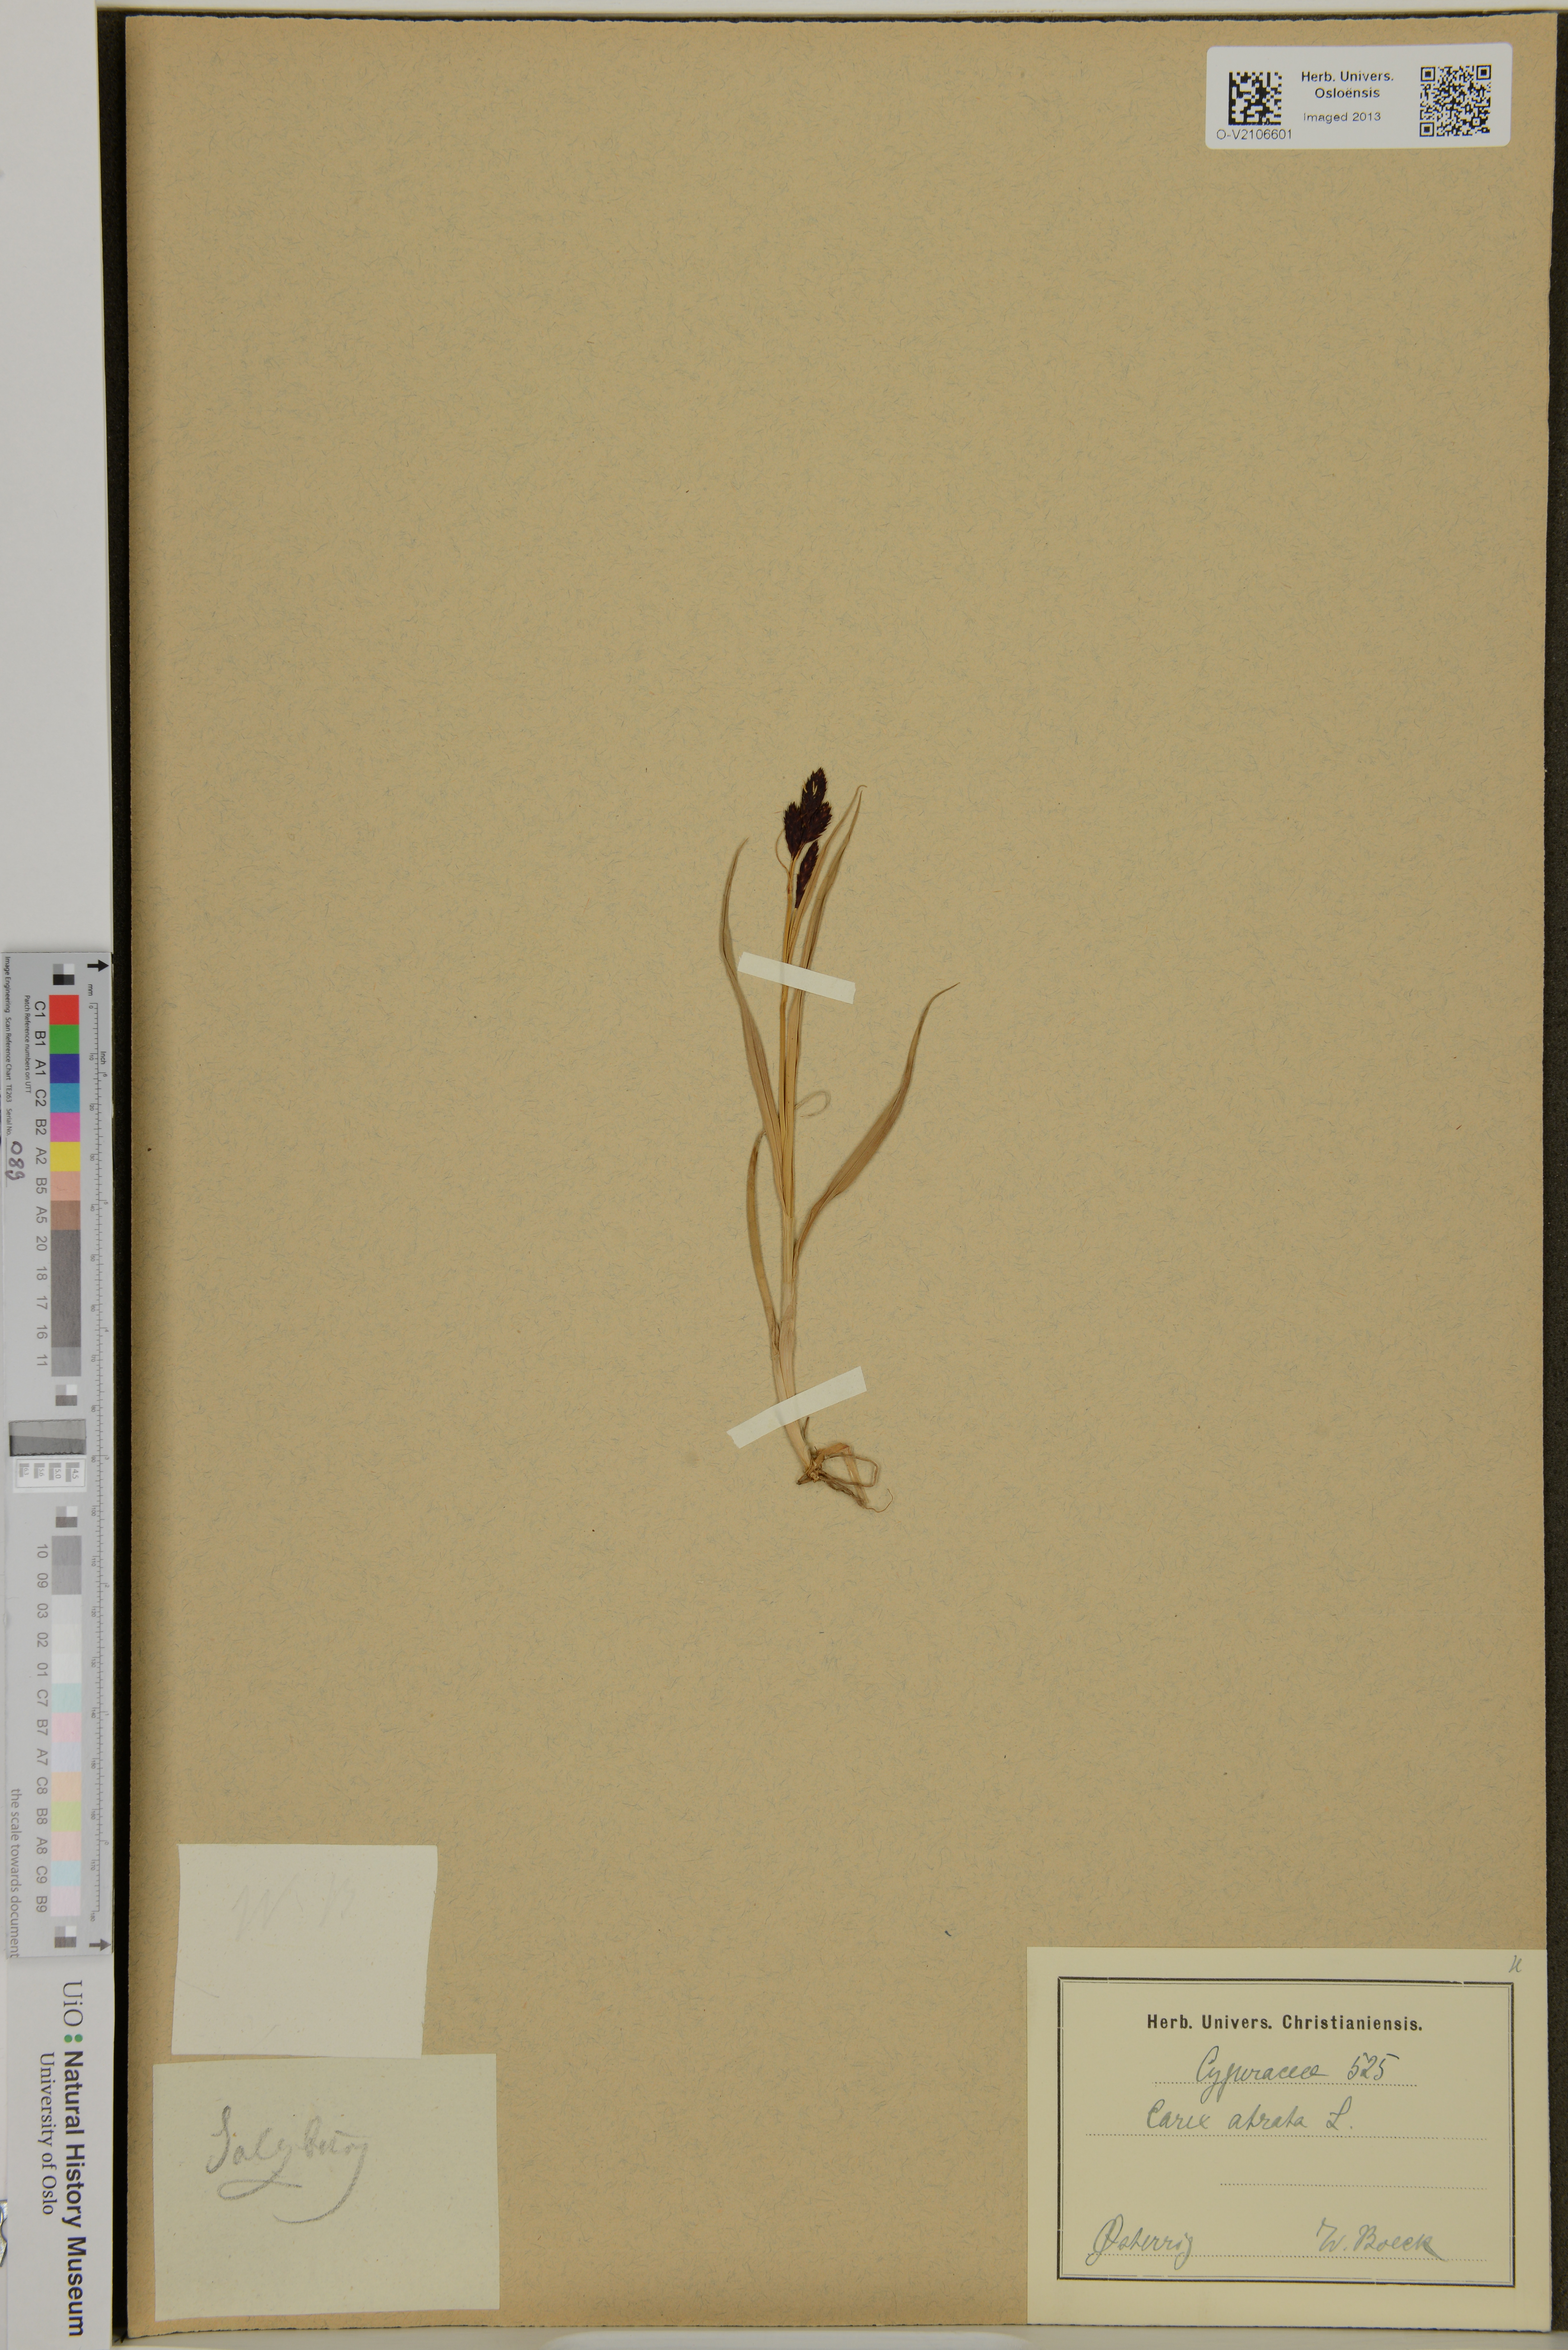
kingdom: Plantae
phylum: Tracheophyta
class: Liliopsida
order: Poales
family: Cyperaceae
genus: Carex
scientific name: Carex atrata
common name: Black alpine sedge
